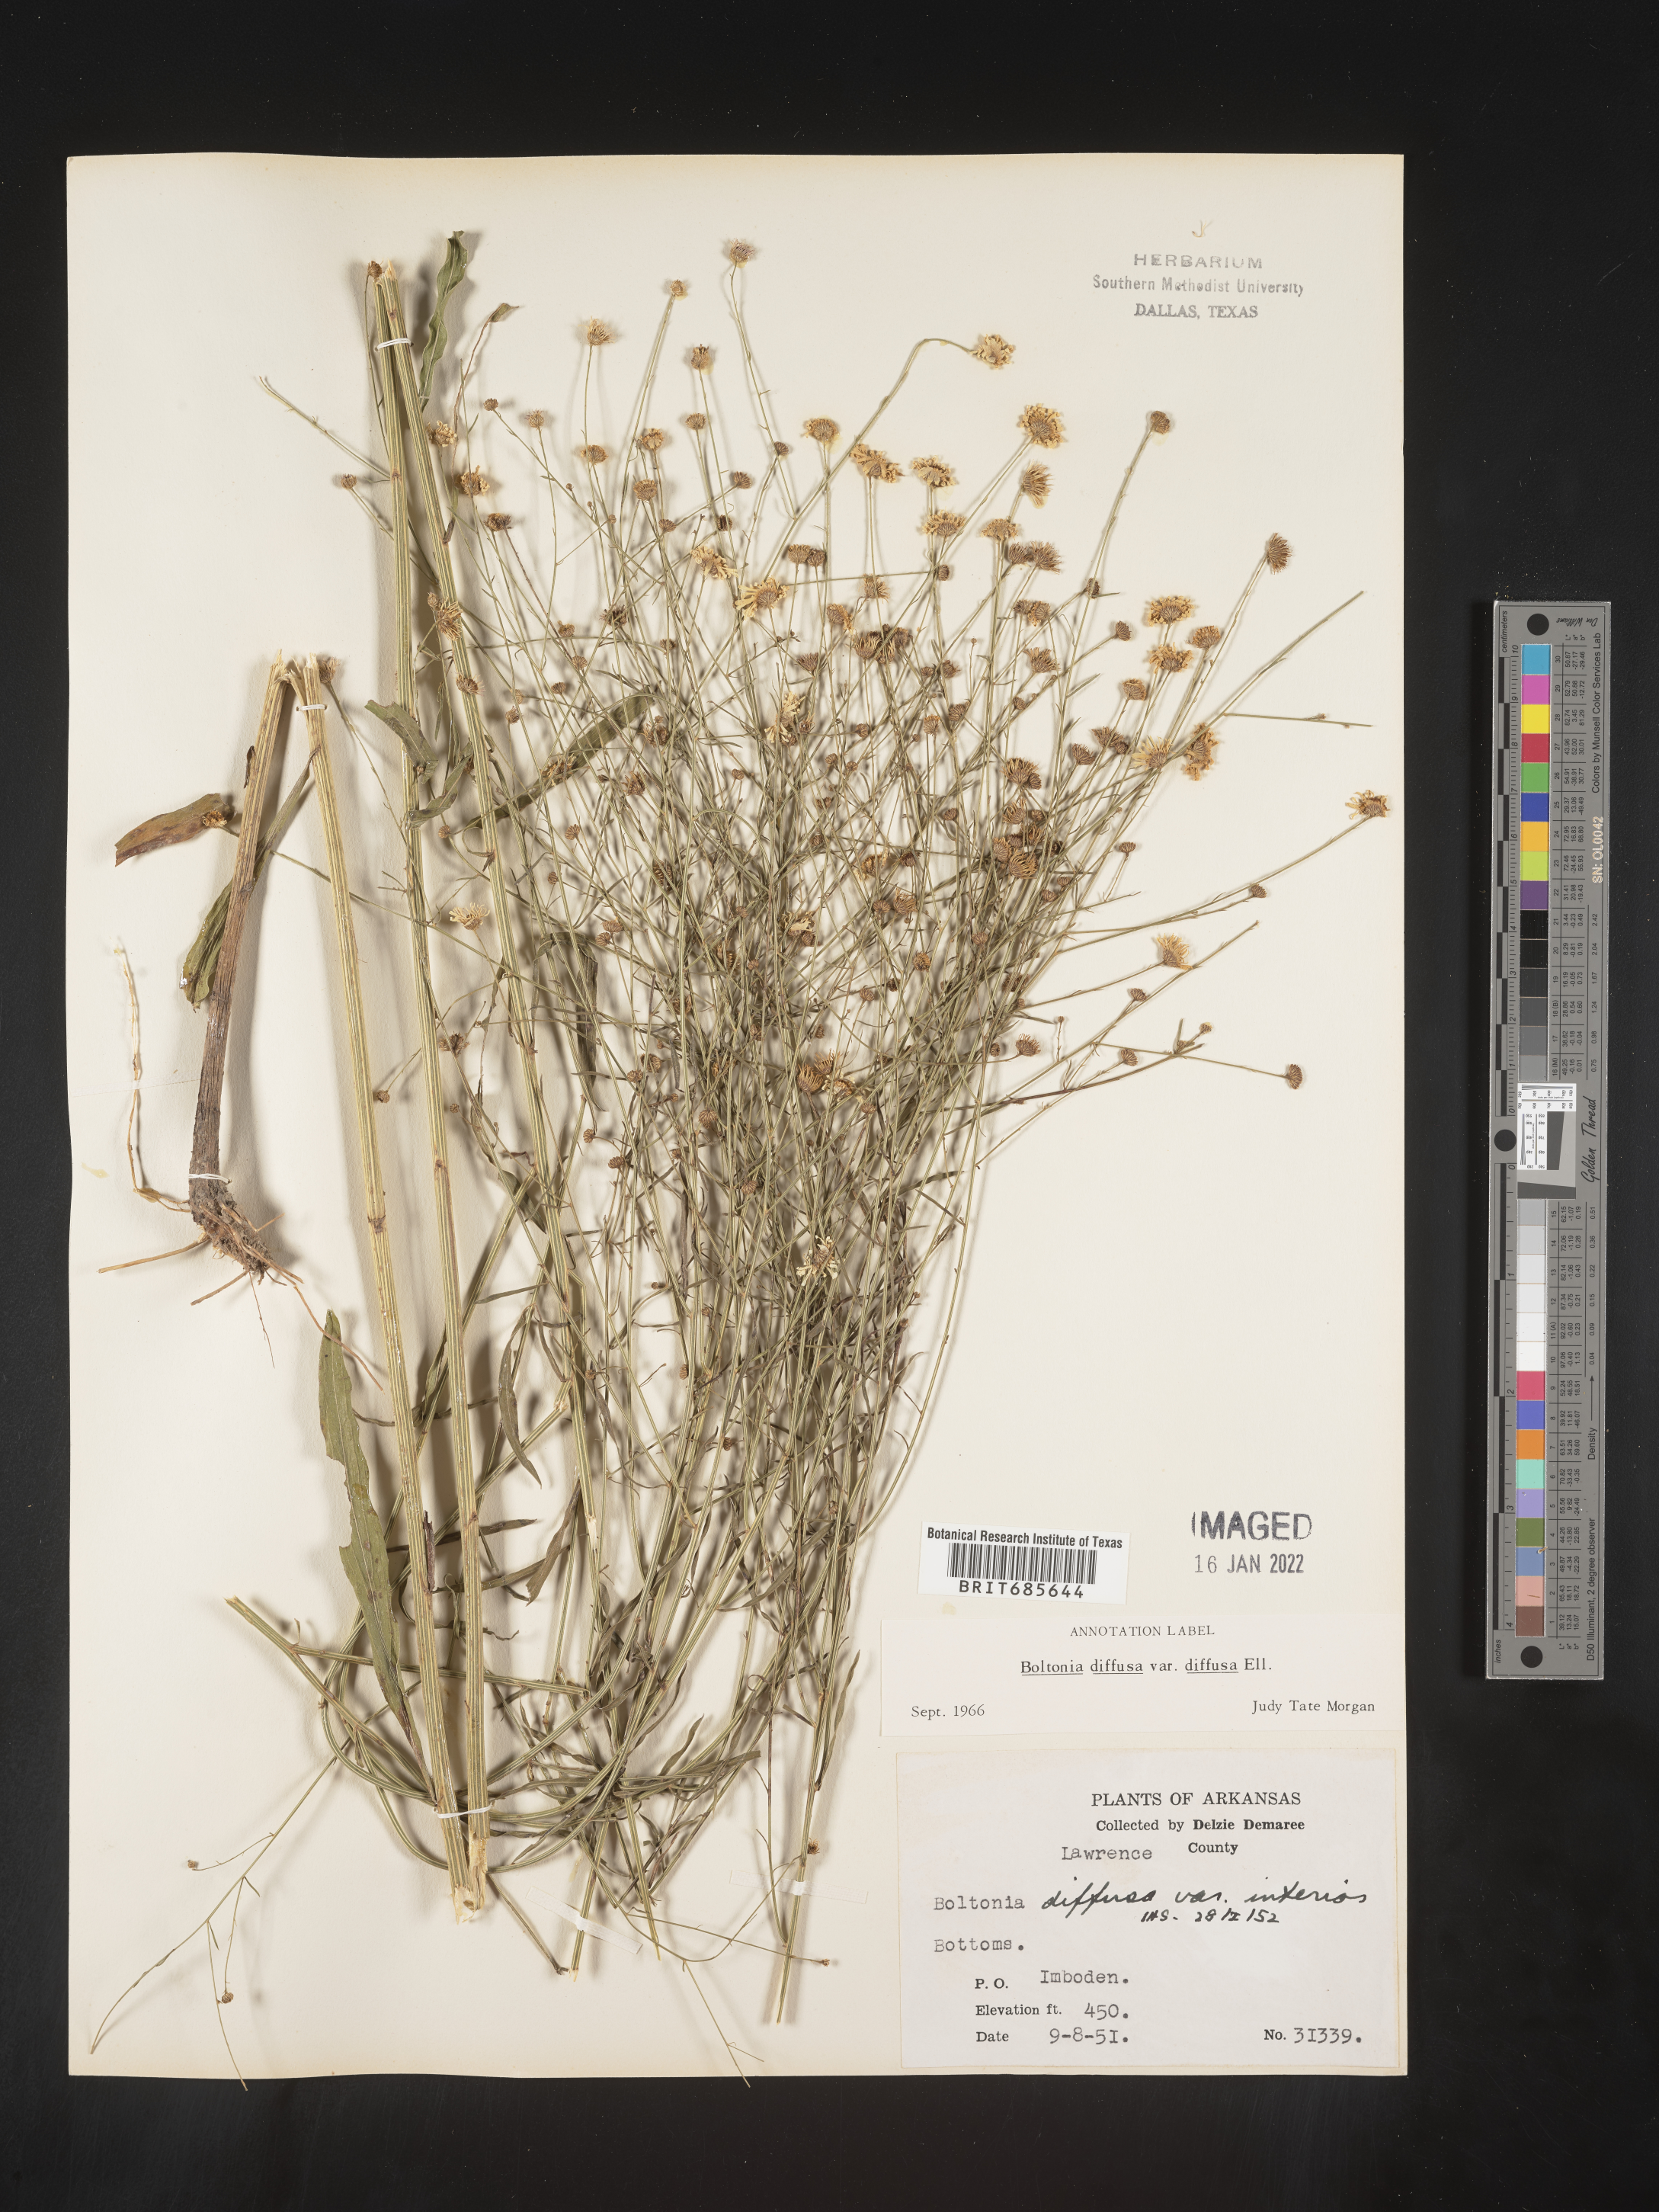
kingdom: Plantae
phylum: Tracheophyta
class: Magnoliopsida
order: Asterales
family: Asteraceae
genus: Boltonia
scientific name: Boltonia diffusa
